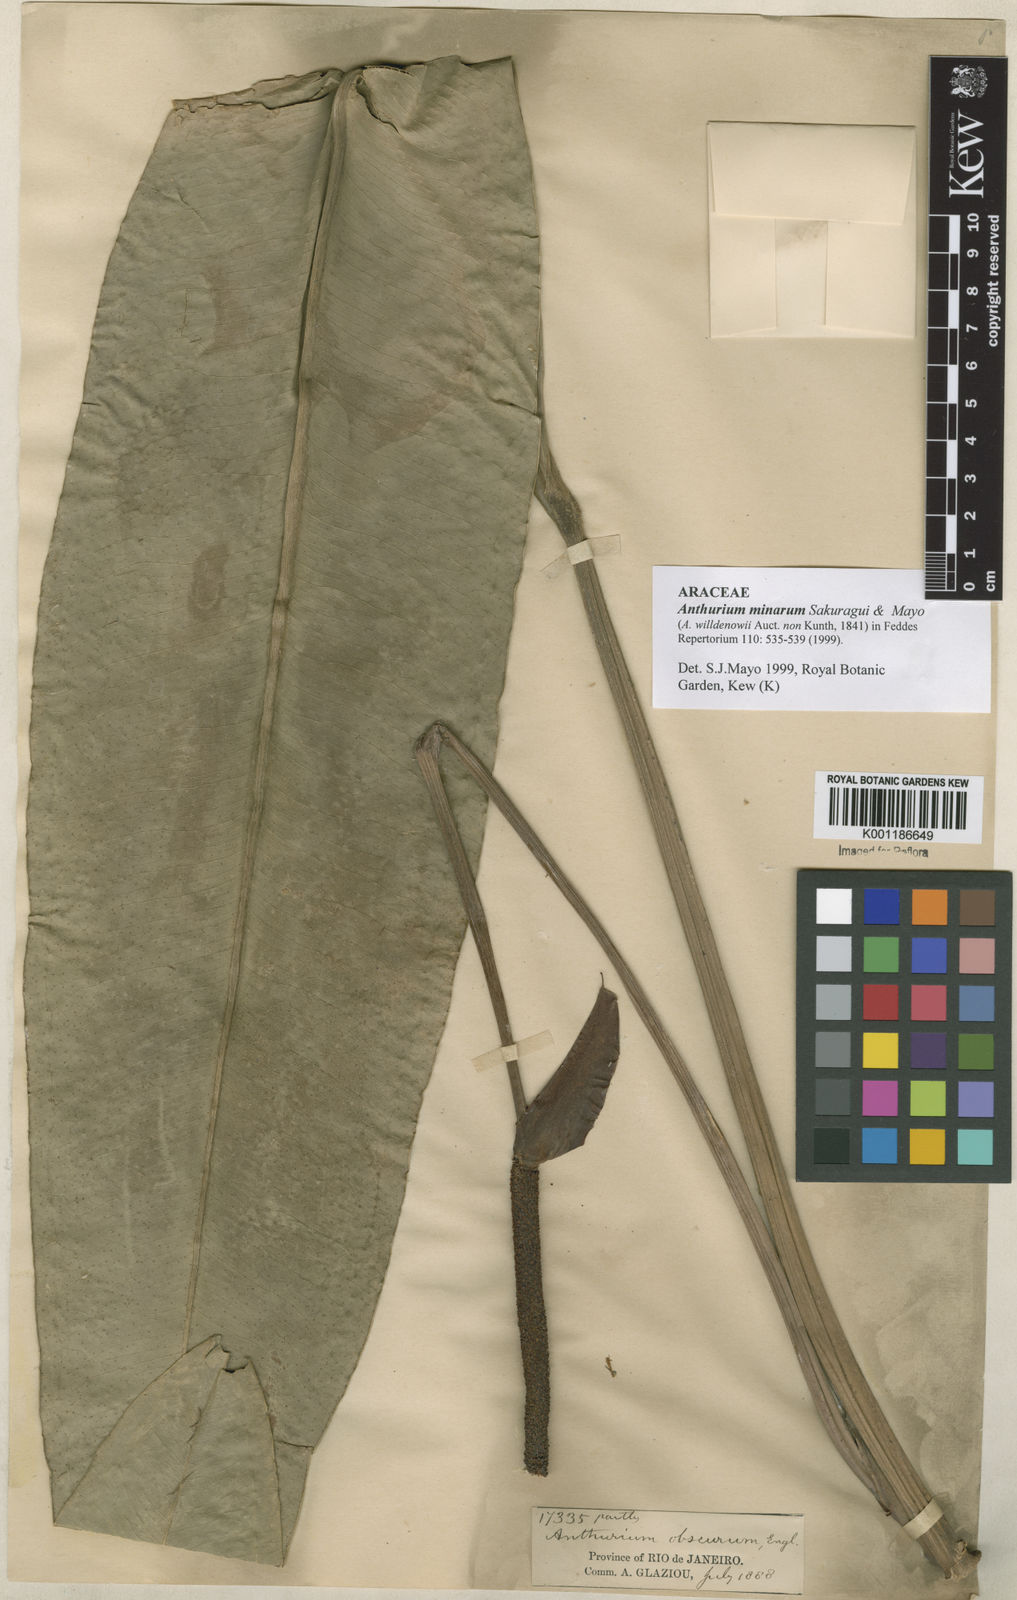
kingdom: Plantae
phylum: Tracheophyta
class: Liliopsida
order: Alismatales
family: Araceae
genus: Anthurium
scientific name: Anthurium minarum
